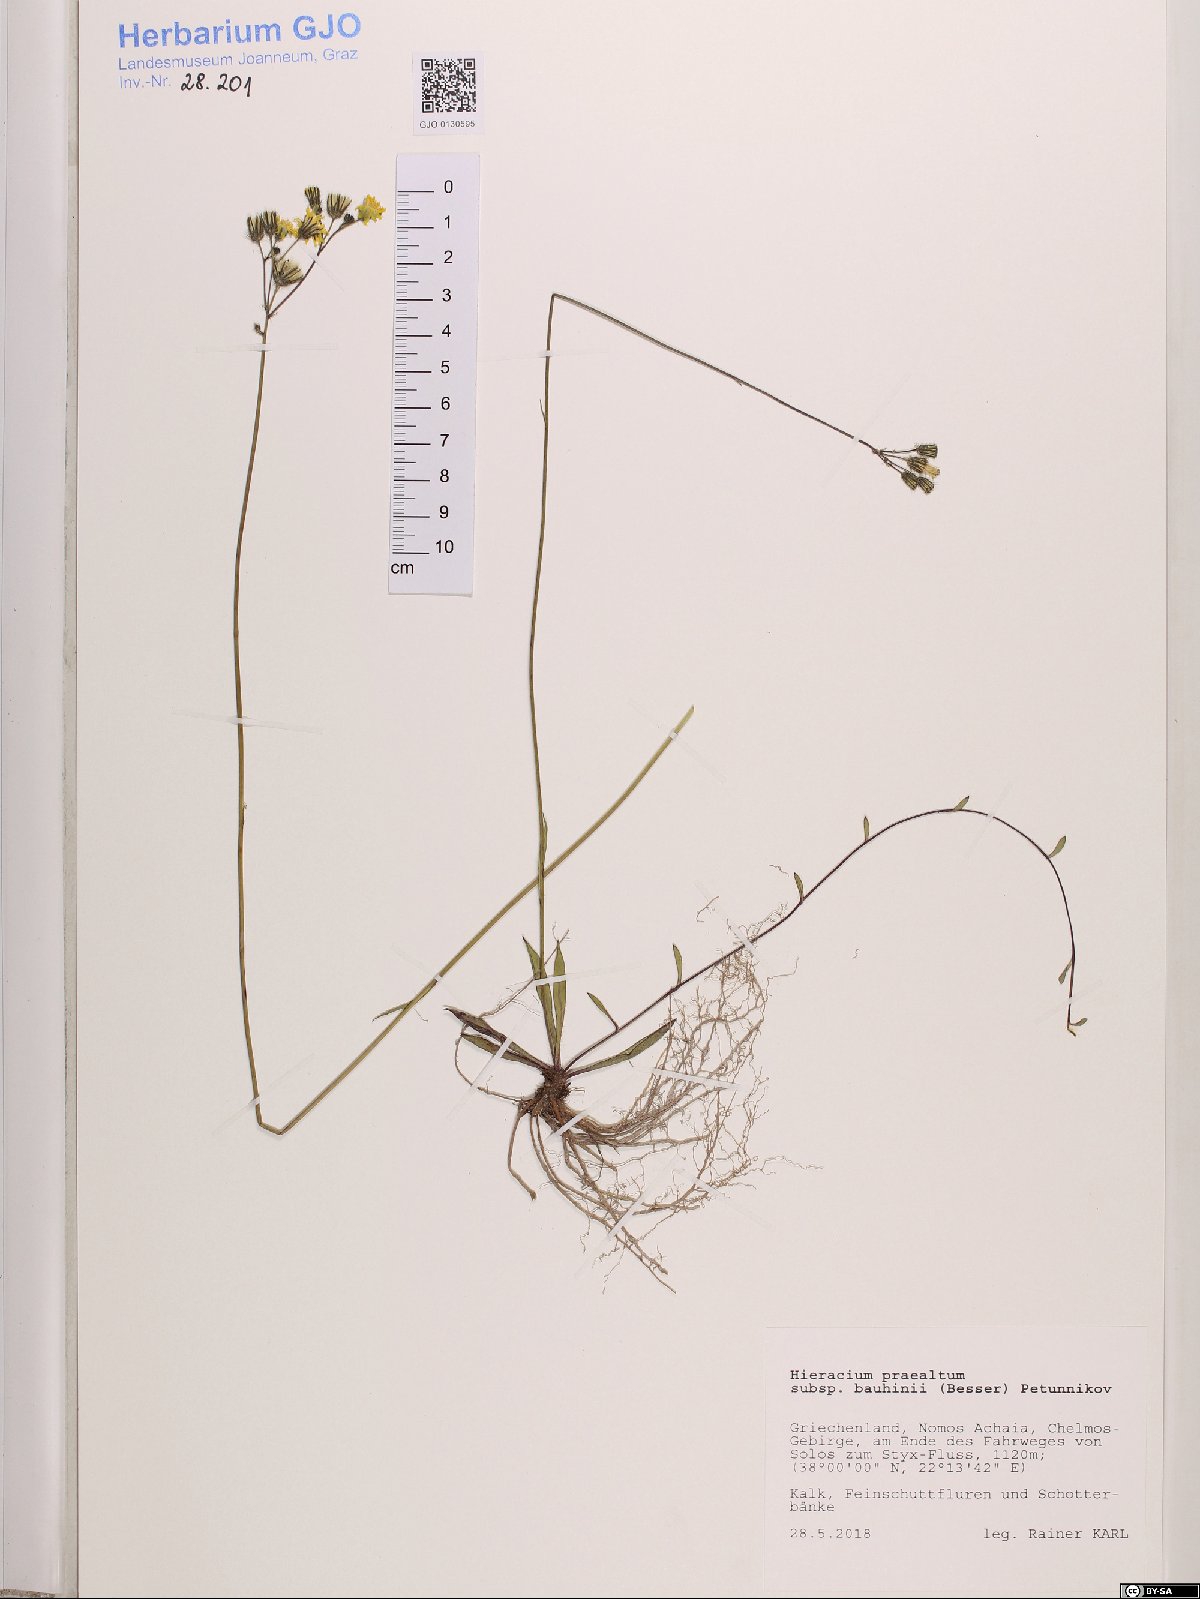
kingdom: Plantae
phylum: Tracheophyta
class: Magnoliopsida
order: Asterales
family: Asteraceae
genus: Pilosella
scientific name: Pilosella bauhini
